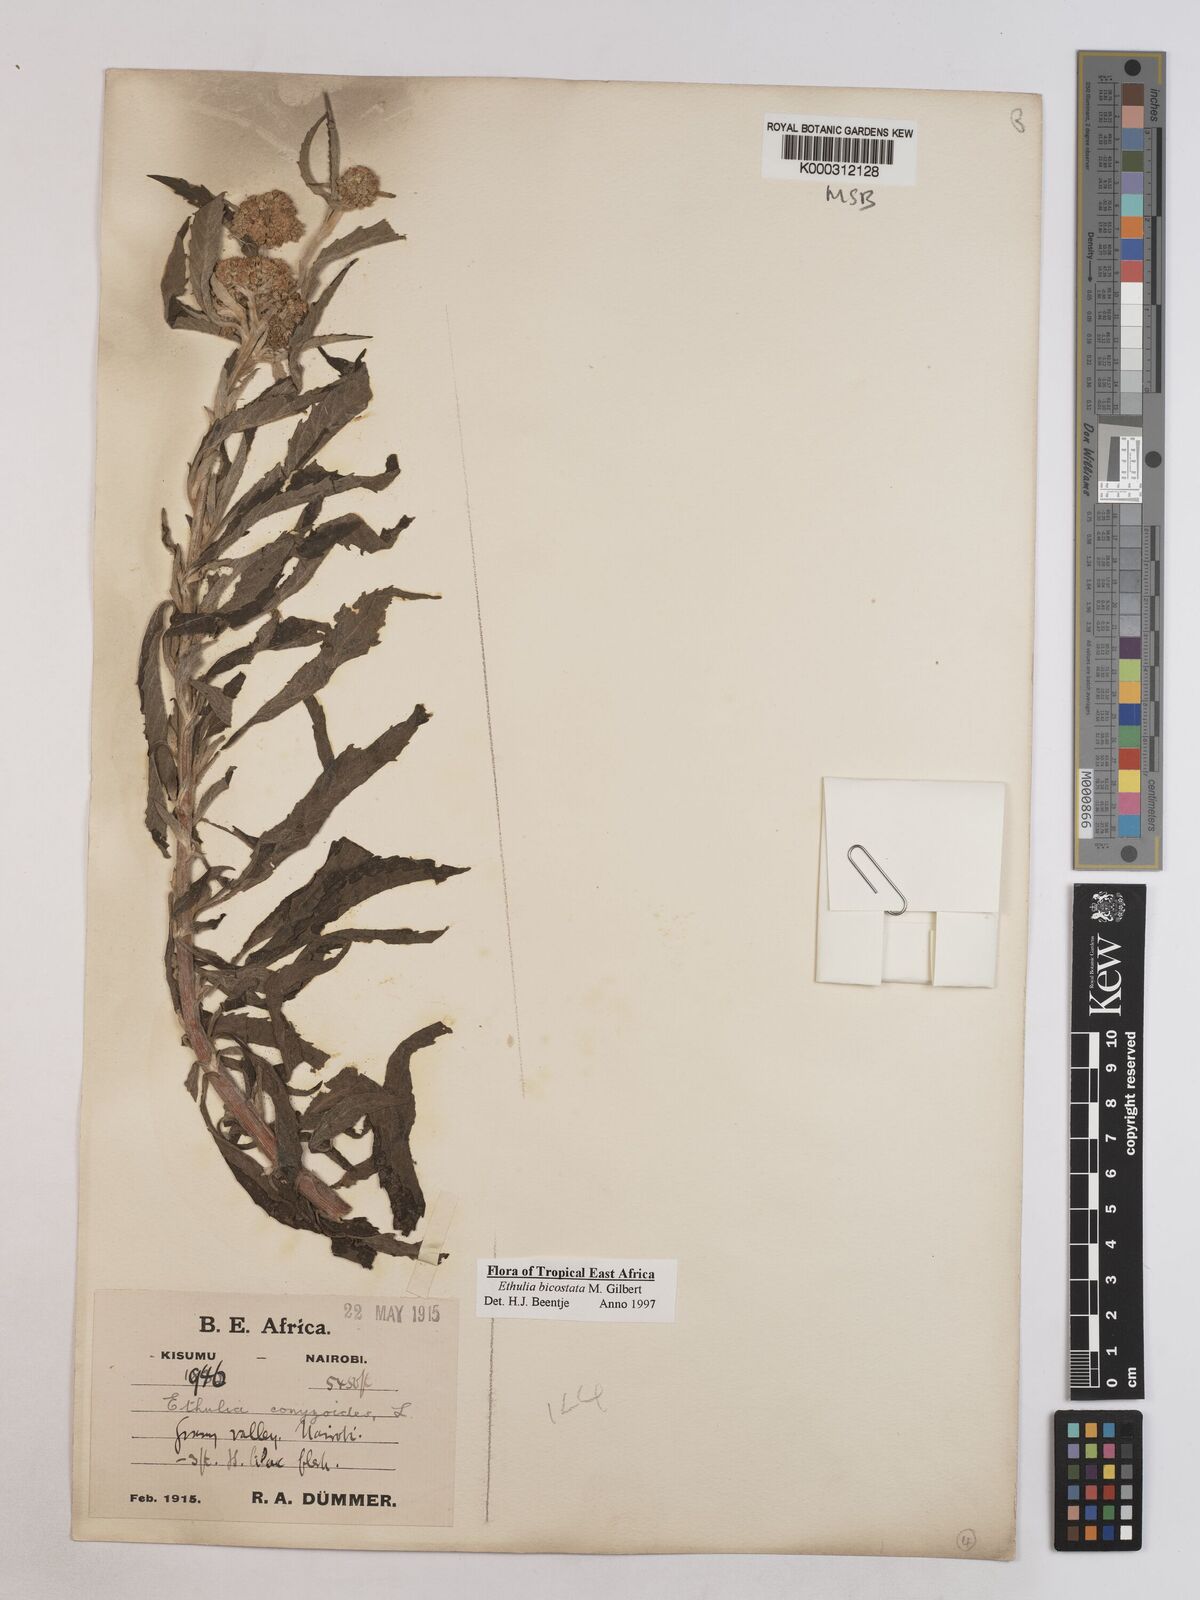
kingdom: Plantae
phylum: Tracheophyta
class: Magnoliopsida
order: Asterales
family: Asteraceae
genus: Ethulia
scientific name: Ethulia bicostata
